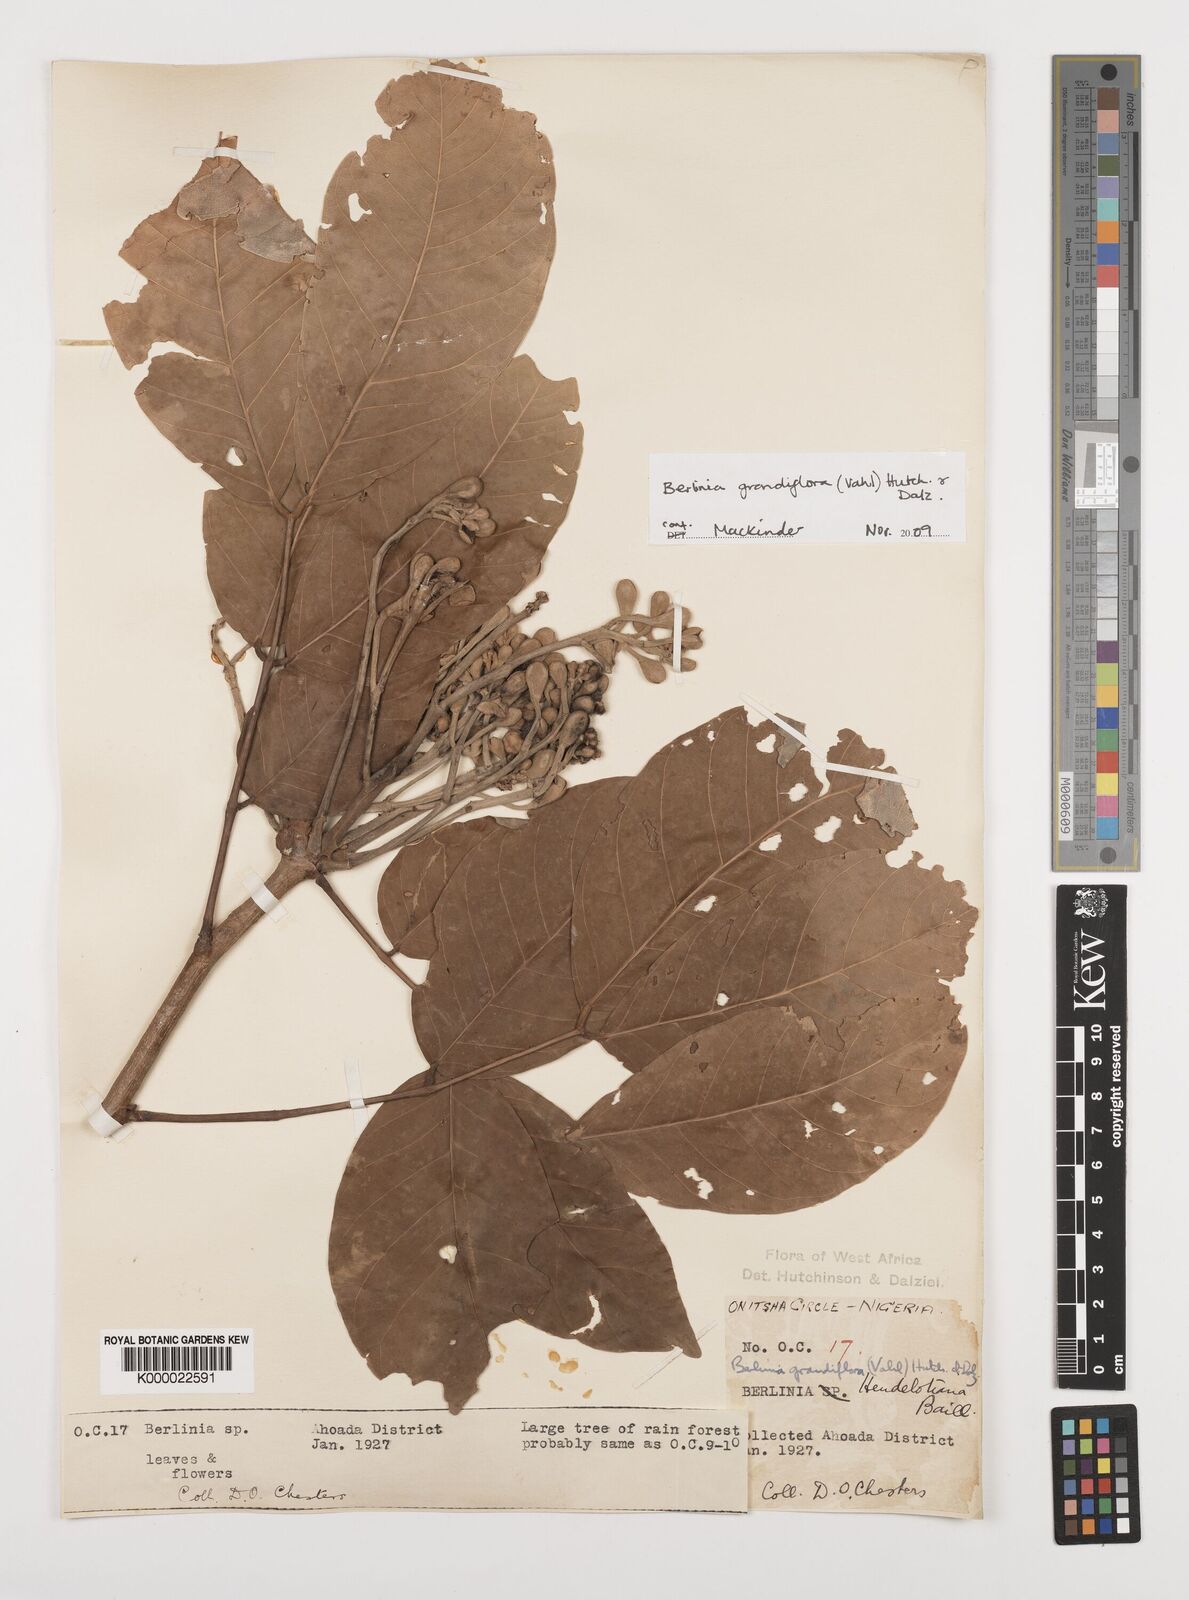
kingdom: Plantae
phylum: Tracheophyta
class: Magnoliopsida
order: Fabales
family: Fabaceae
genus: Berlinia
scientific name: Berlinia grandiflora
